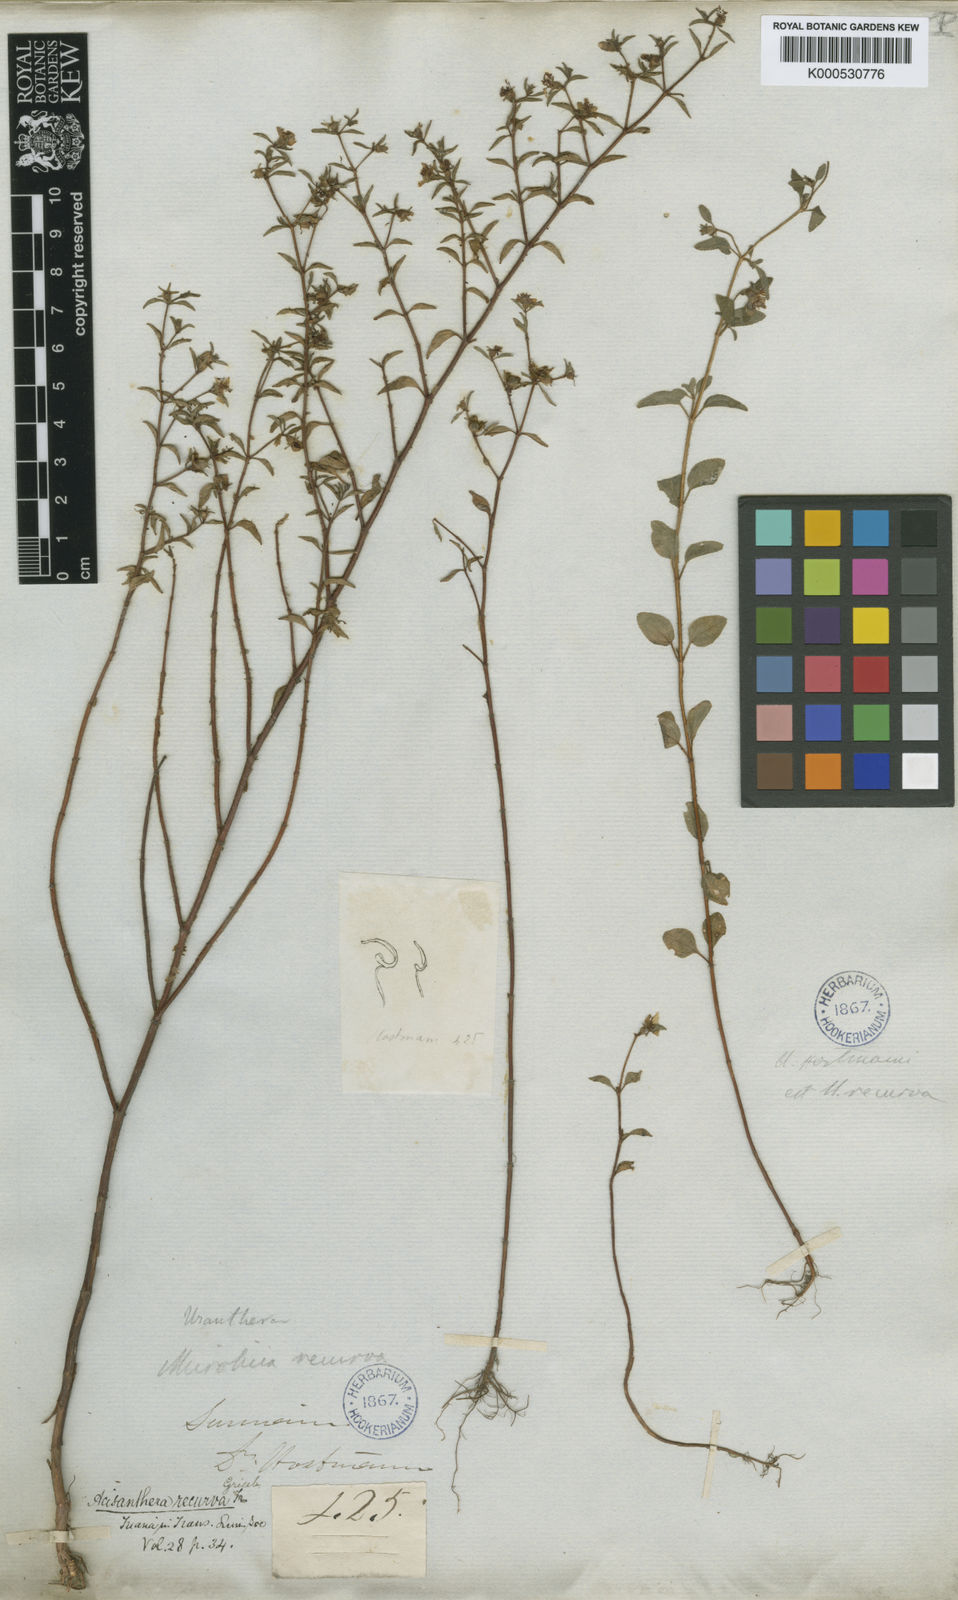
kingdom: Plantae
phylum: Tracheophyta
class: Magnoliopsida
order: Myrtales
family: Melastomataceae
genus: Acisanthera
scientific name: Acisanthera uniflora
